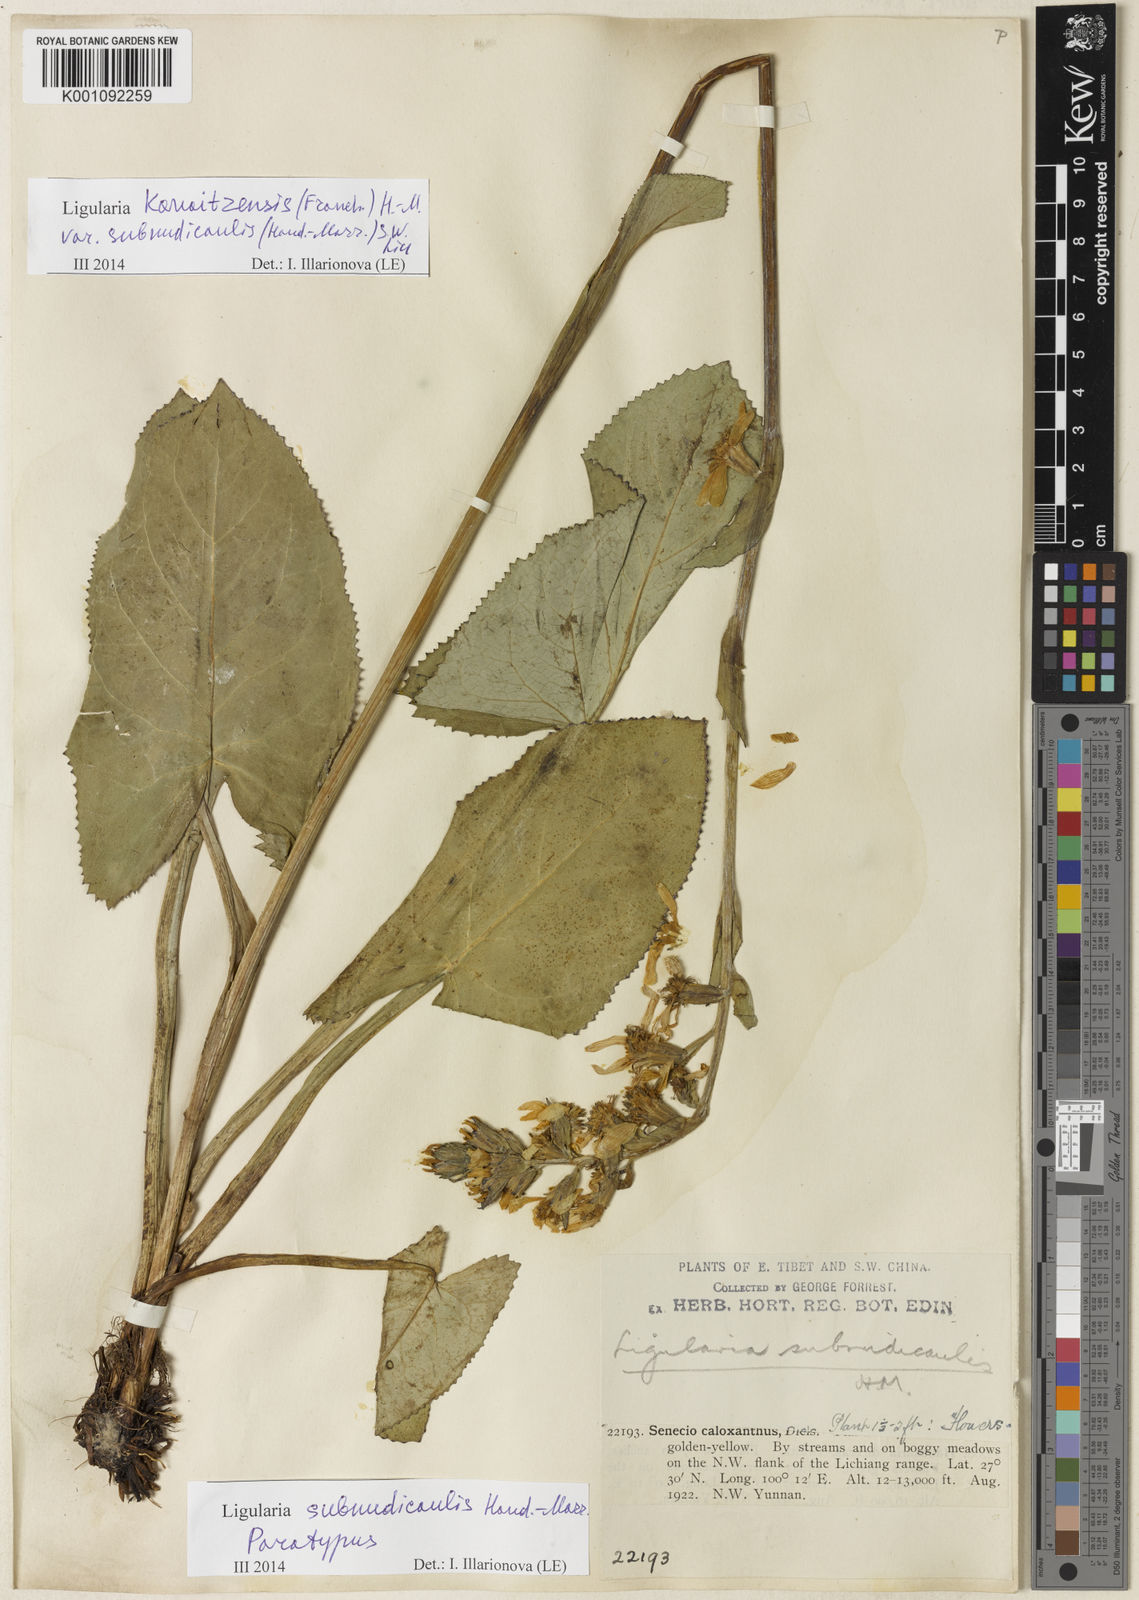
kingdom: Plantae
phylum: Tracheophyta
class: Magnoliopsida
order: Asterales
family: Asteraceae
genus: Ligularia
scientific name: Ligularia kanaitzensis
